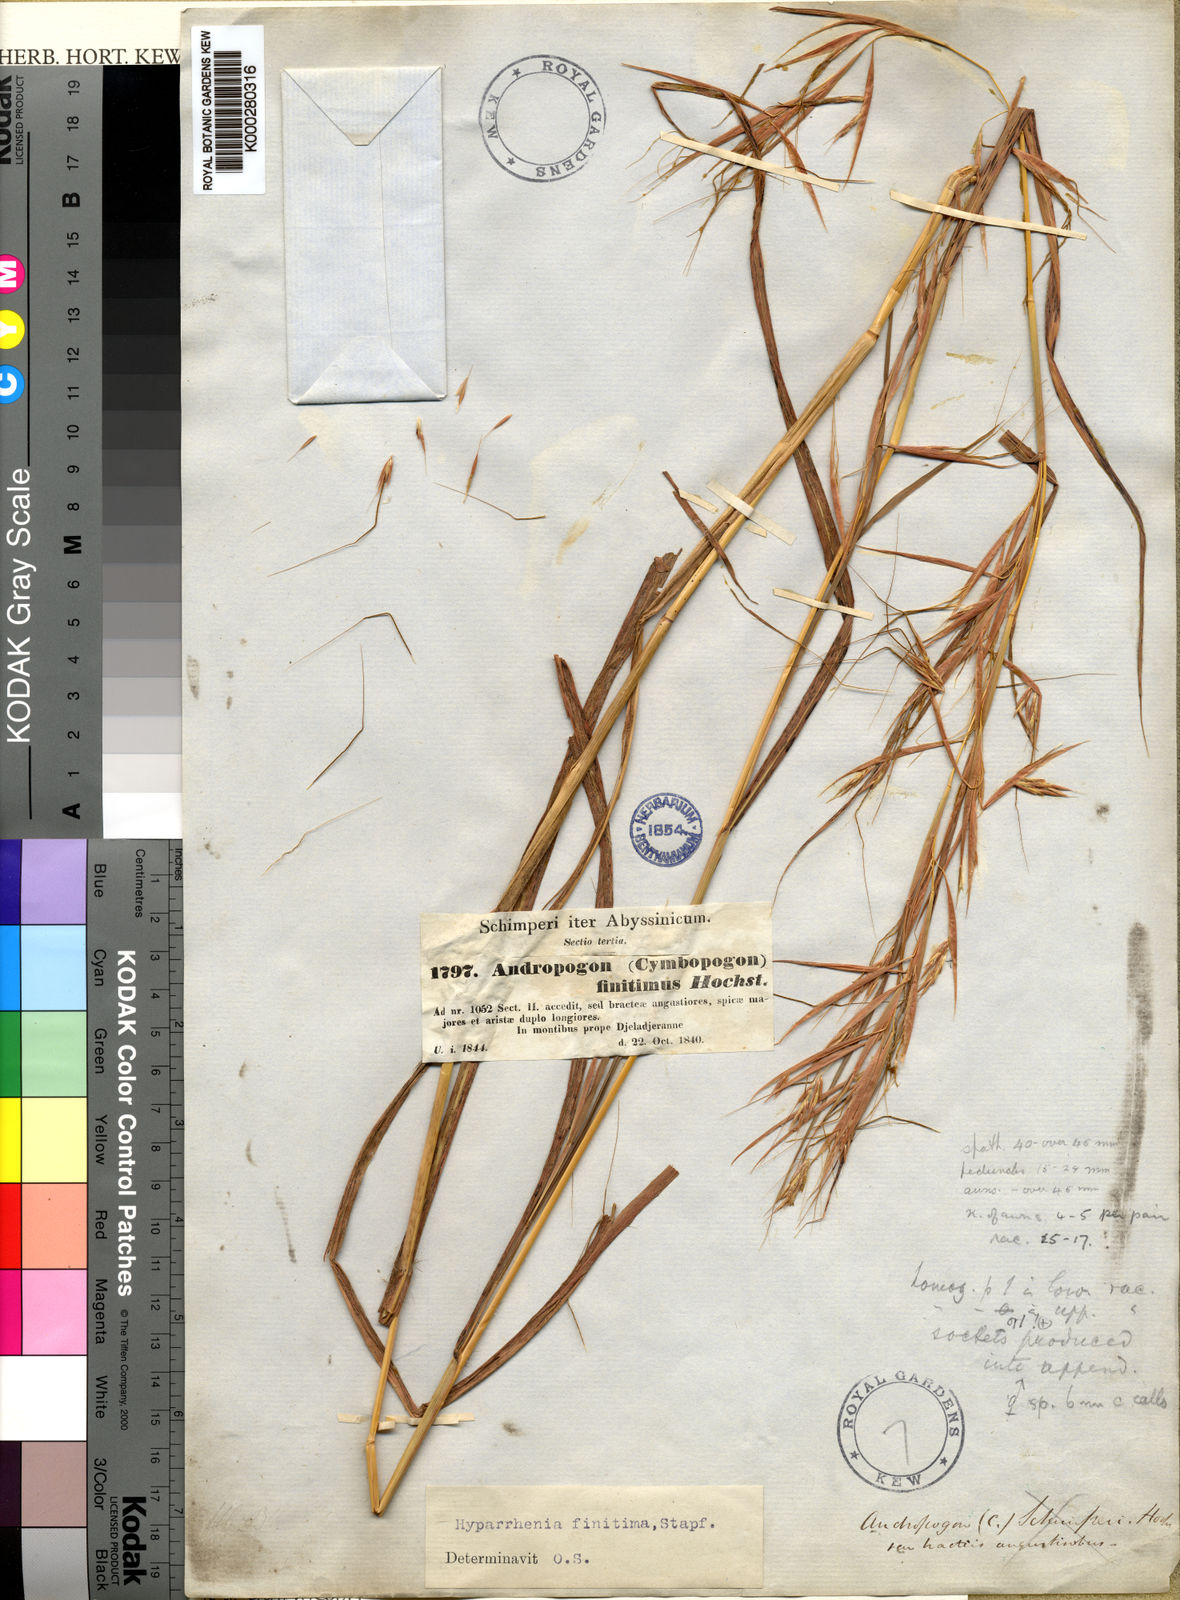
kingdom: Plantae
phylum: Tracheophyta
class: Liliopsida
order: Poales
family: Poaceae
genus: Hyparrhenia
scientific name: Hyparrhenia finitima
